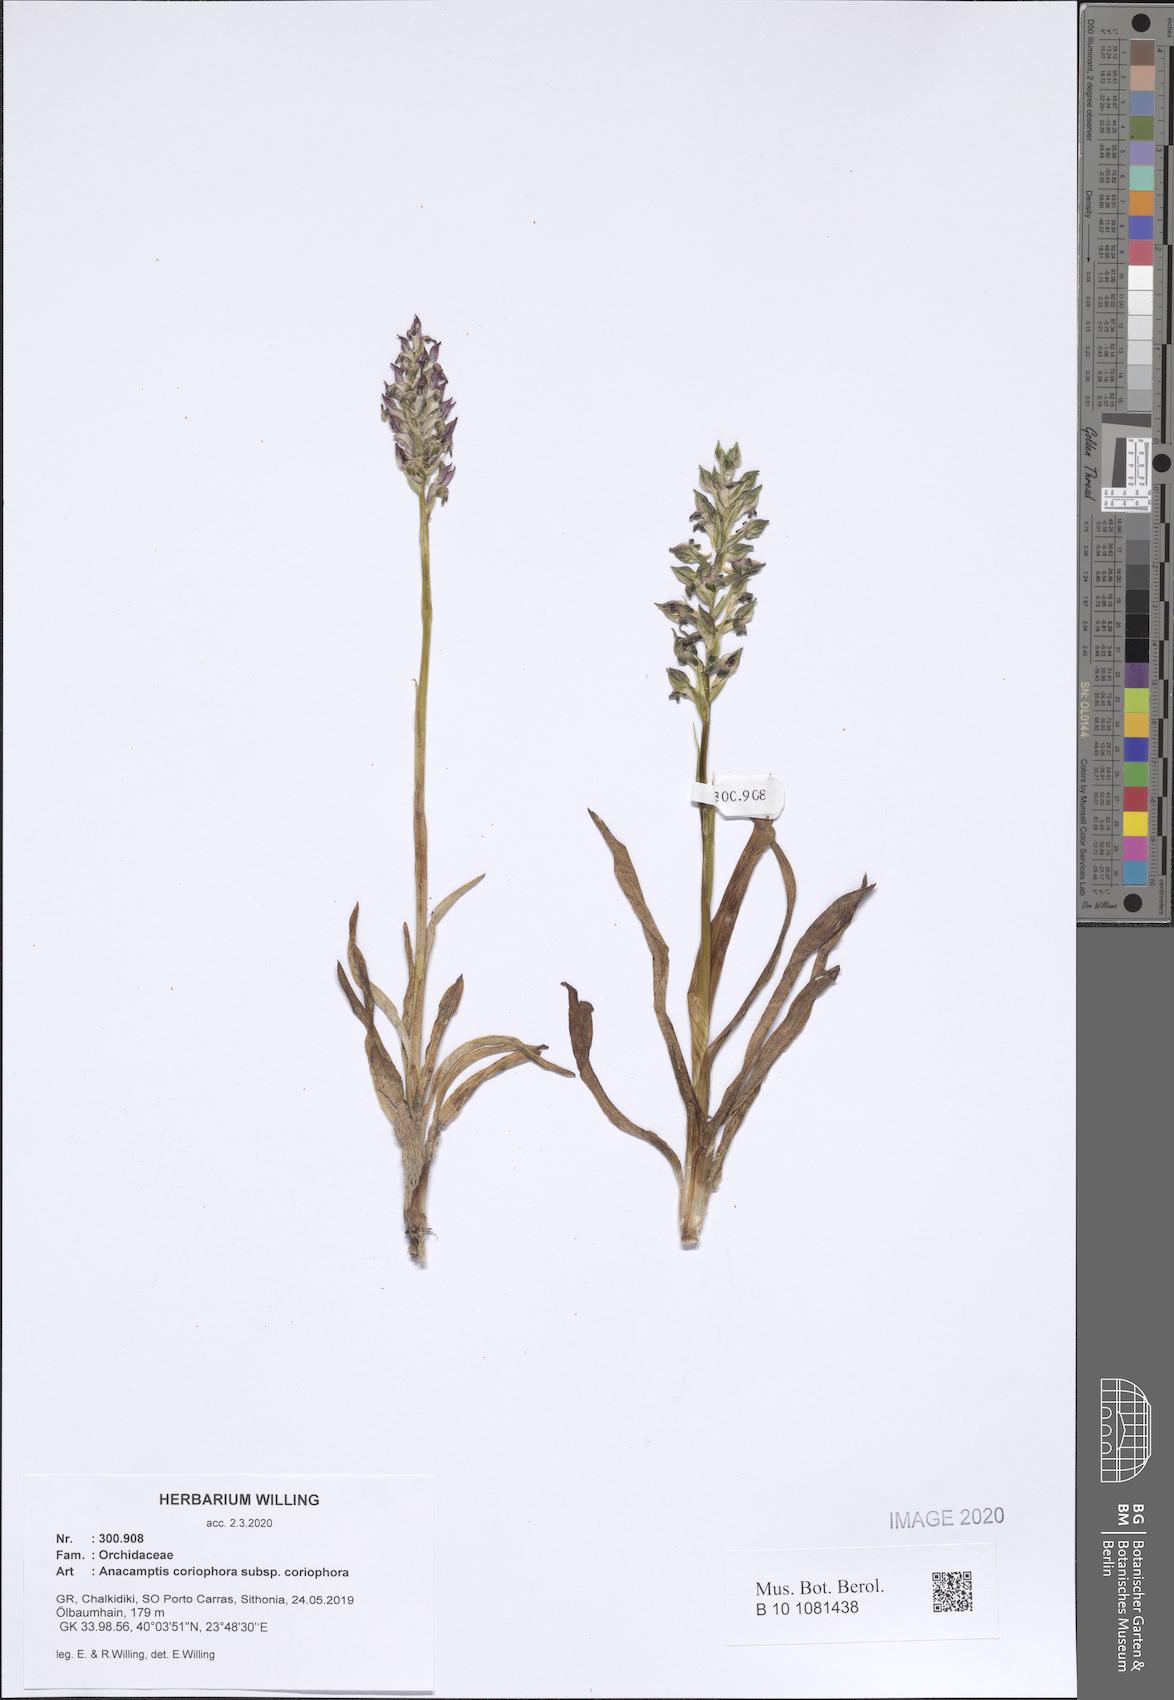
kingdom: Plantae
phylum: Tracheophyta
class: Liliopsida
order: Asparagales
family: Orchidaceae
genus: Anacamptis
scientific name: Anacamptis coriophora
